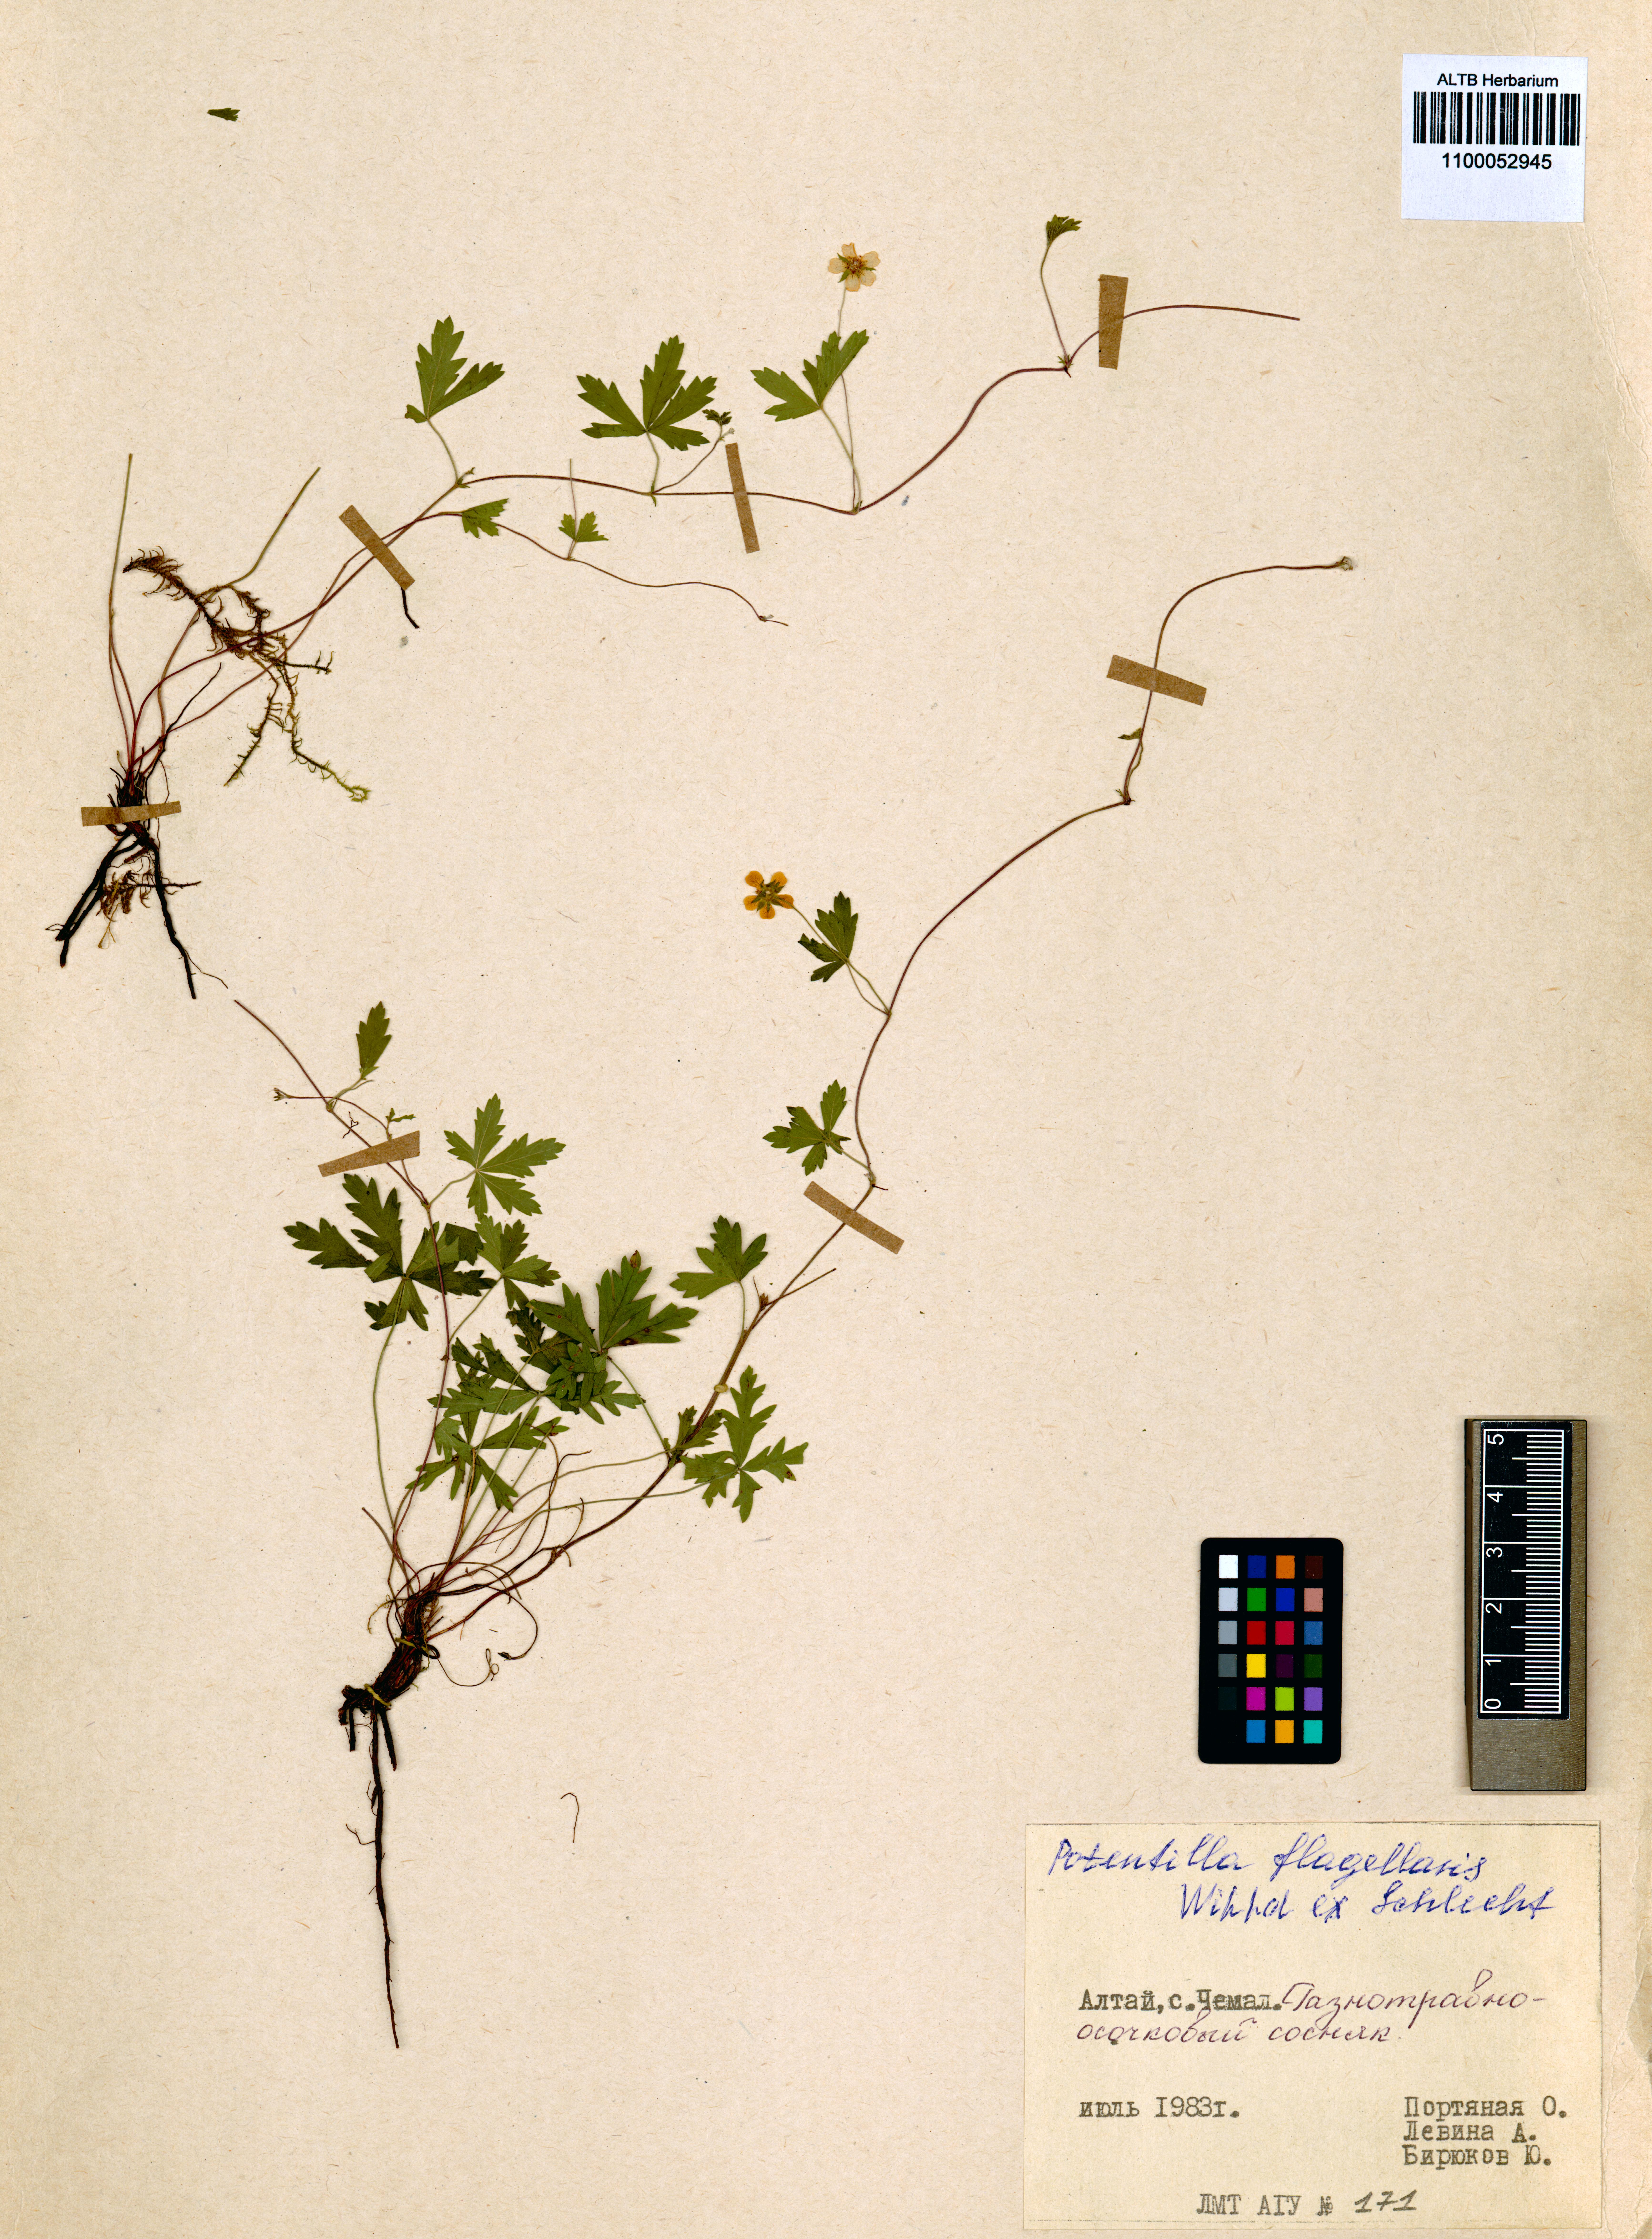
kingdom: Plantae
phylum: Tracheophyta
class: Magnoliopsida
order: Rosales
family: Rosaceae
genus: Potentilla
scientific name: Potentilla flagellaris
